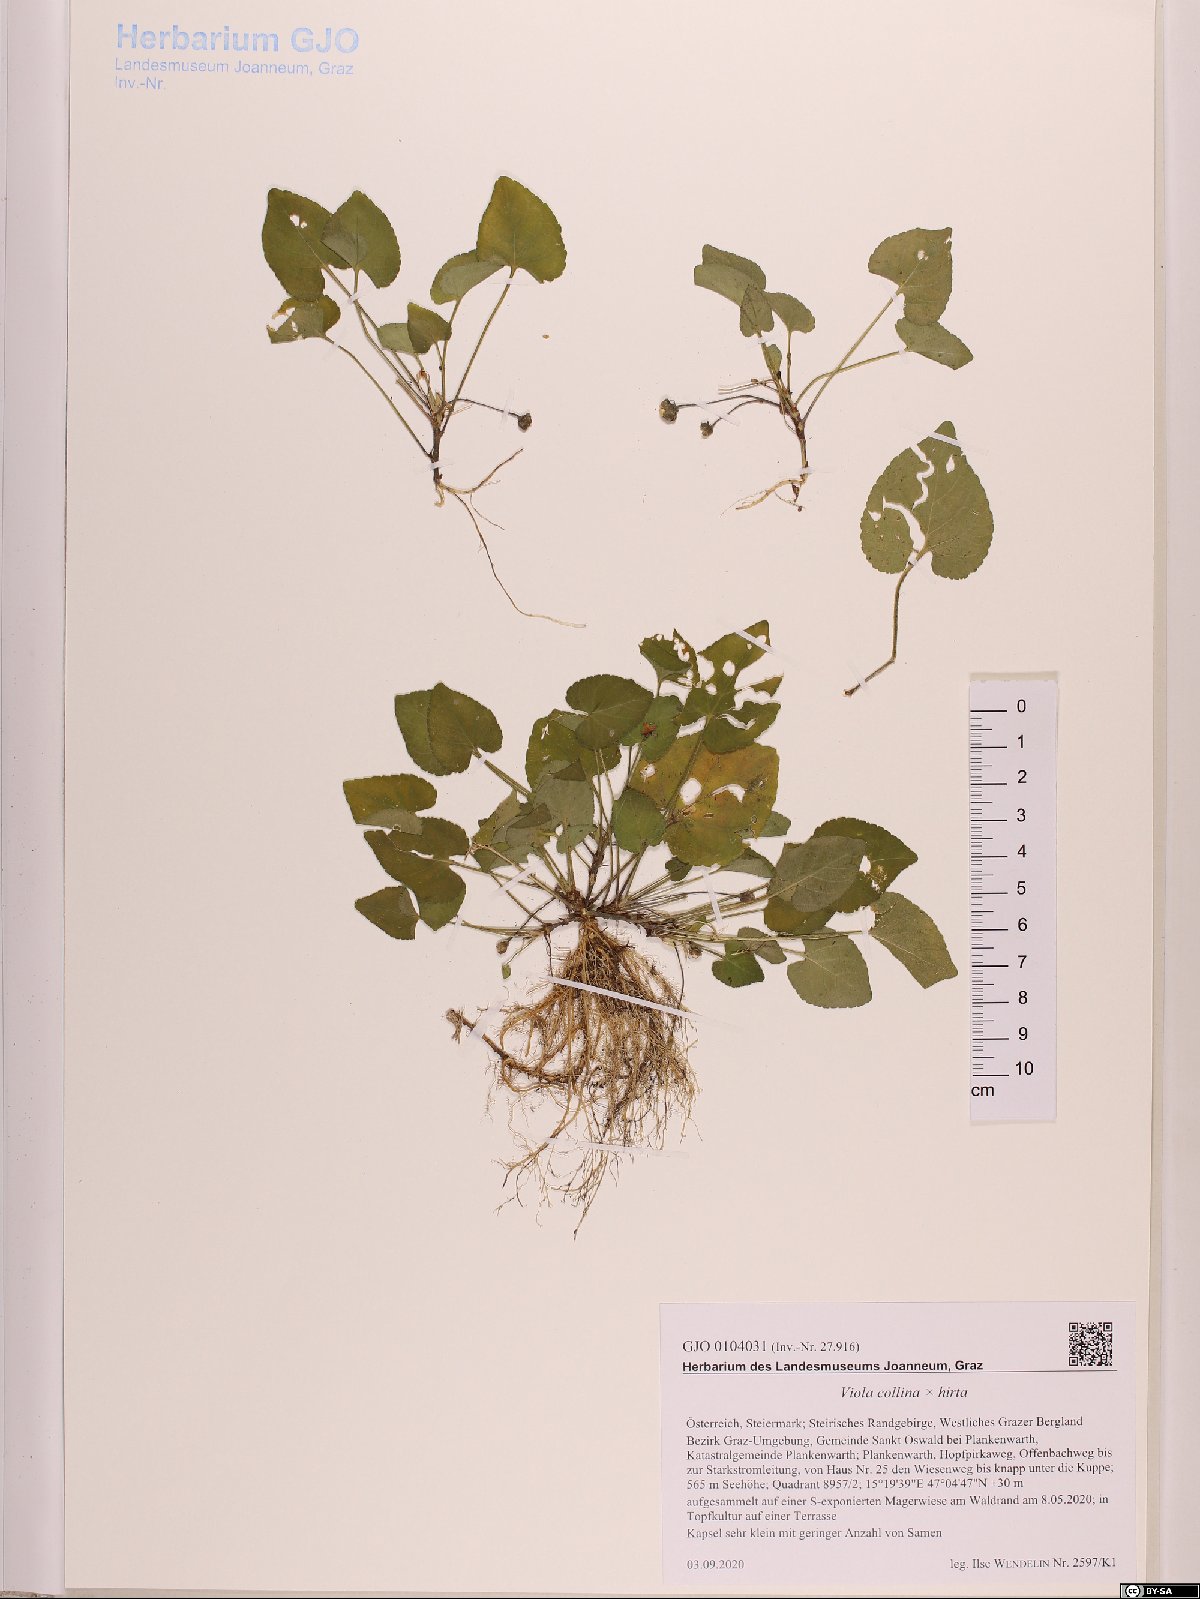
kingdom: Plantae
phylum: Tracheophyta
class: Magnoliopsida
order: Malpighiales
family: Violaceae
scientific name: Violaceae
